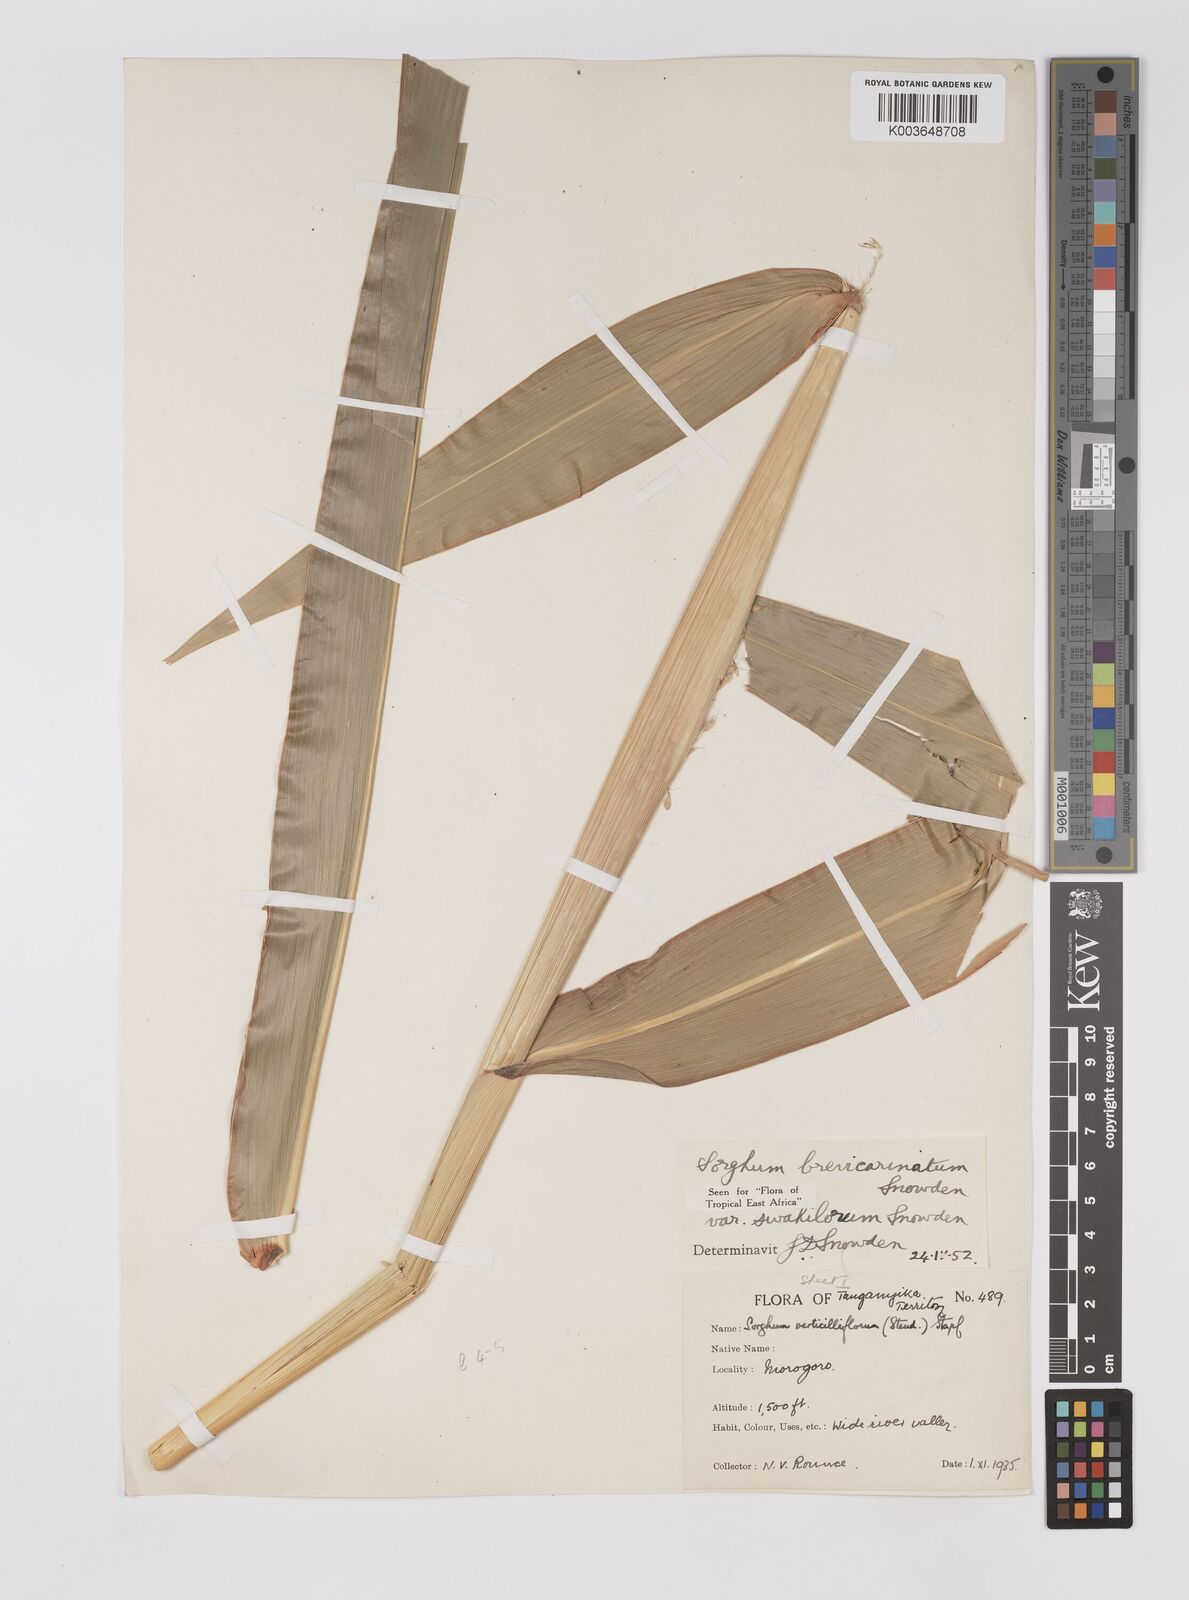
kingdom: Plantae
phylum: Tracheophyta
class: Liliopsida
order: Poales
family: Poaceae
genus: Sorghum
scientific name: Sorghum arundinaceum
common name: Sorghum
